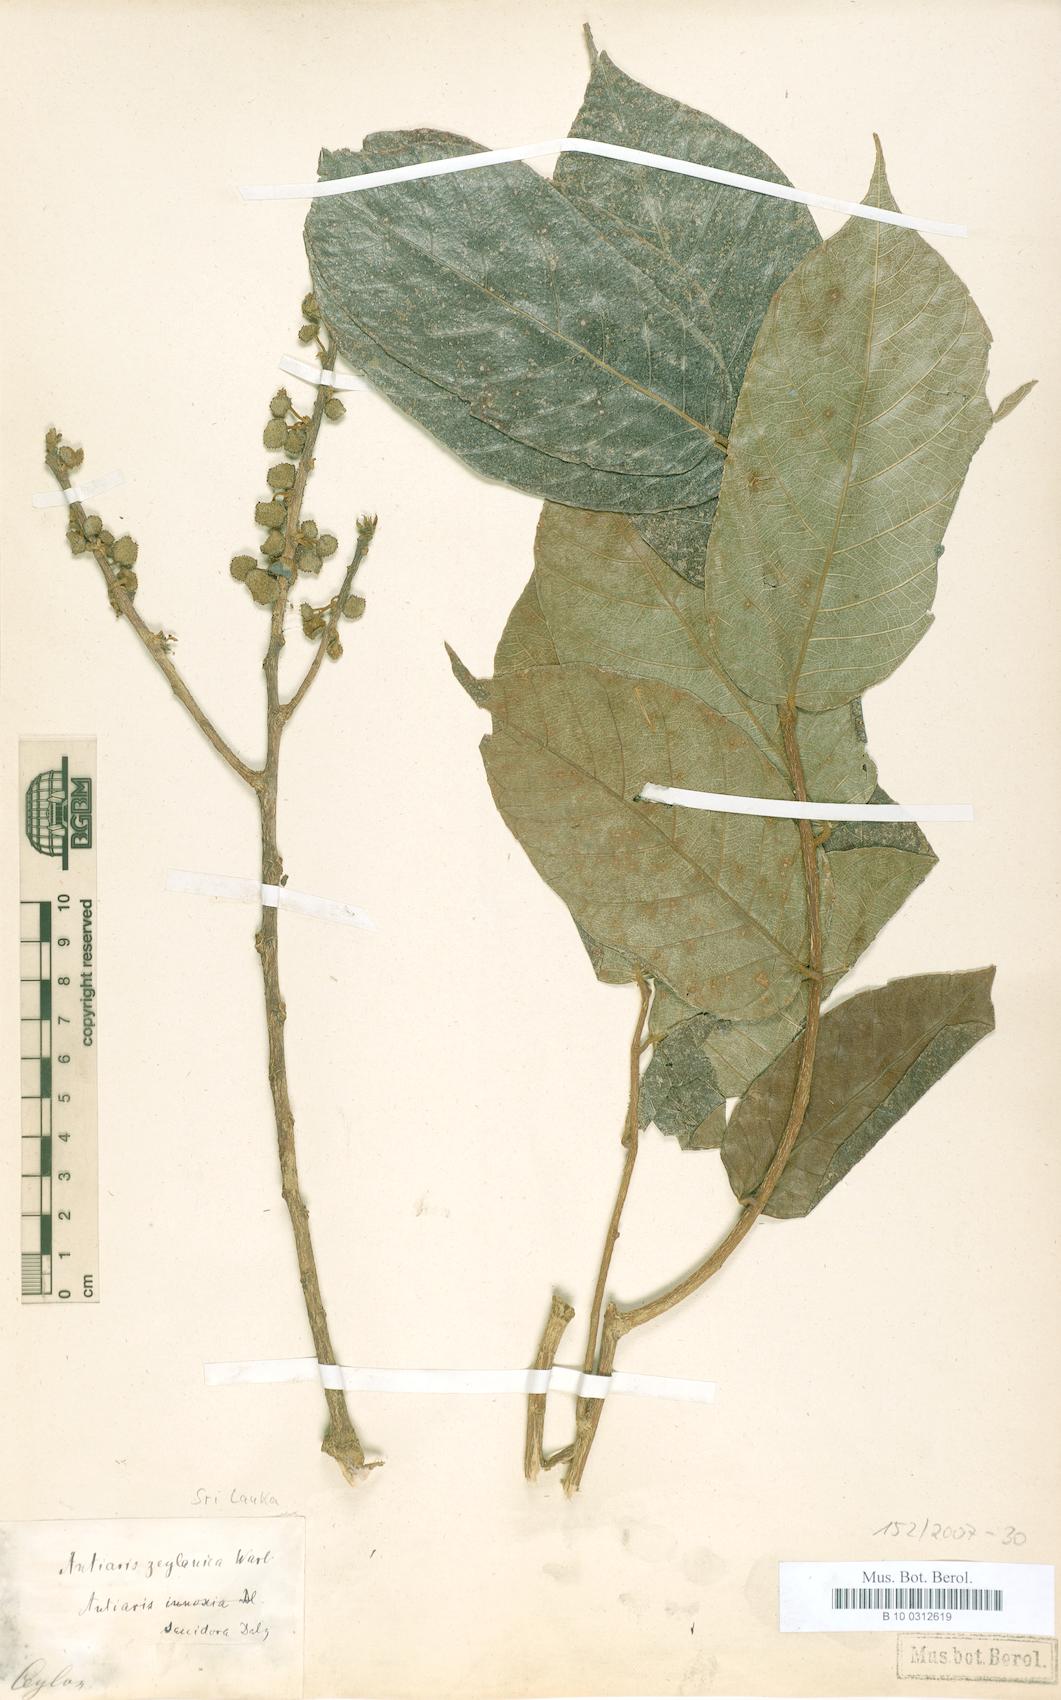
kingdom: Plantae
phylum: Tracheophyta
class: Magnoliopsida
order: Rosales
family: Moraceae
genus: Antiaris
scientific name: Antiaris toxicaria
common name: Sackingtree
